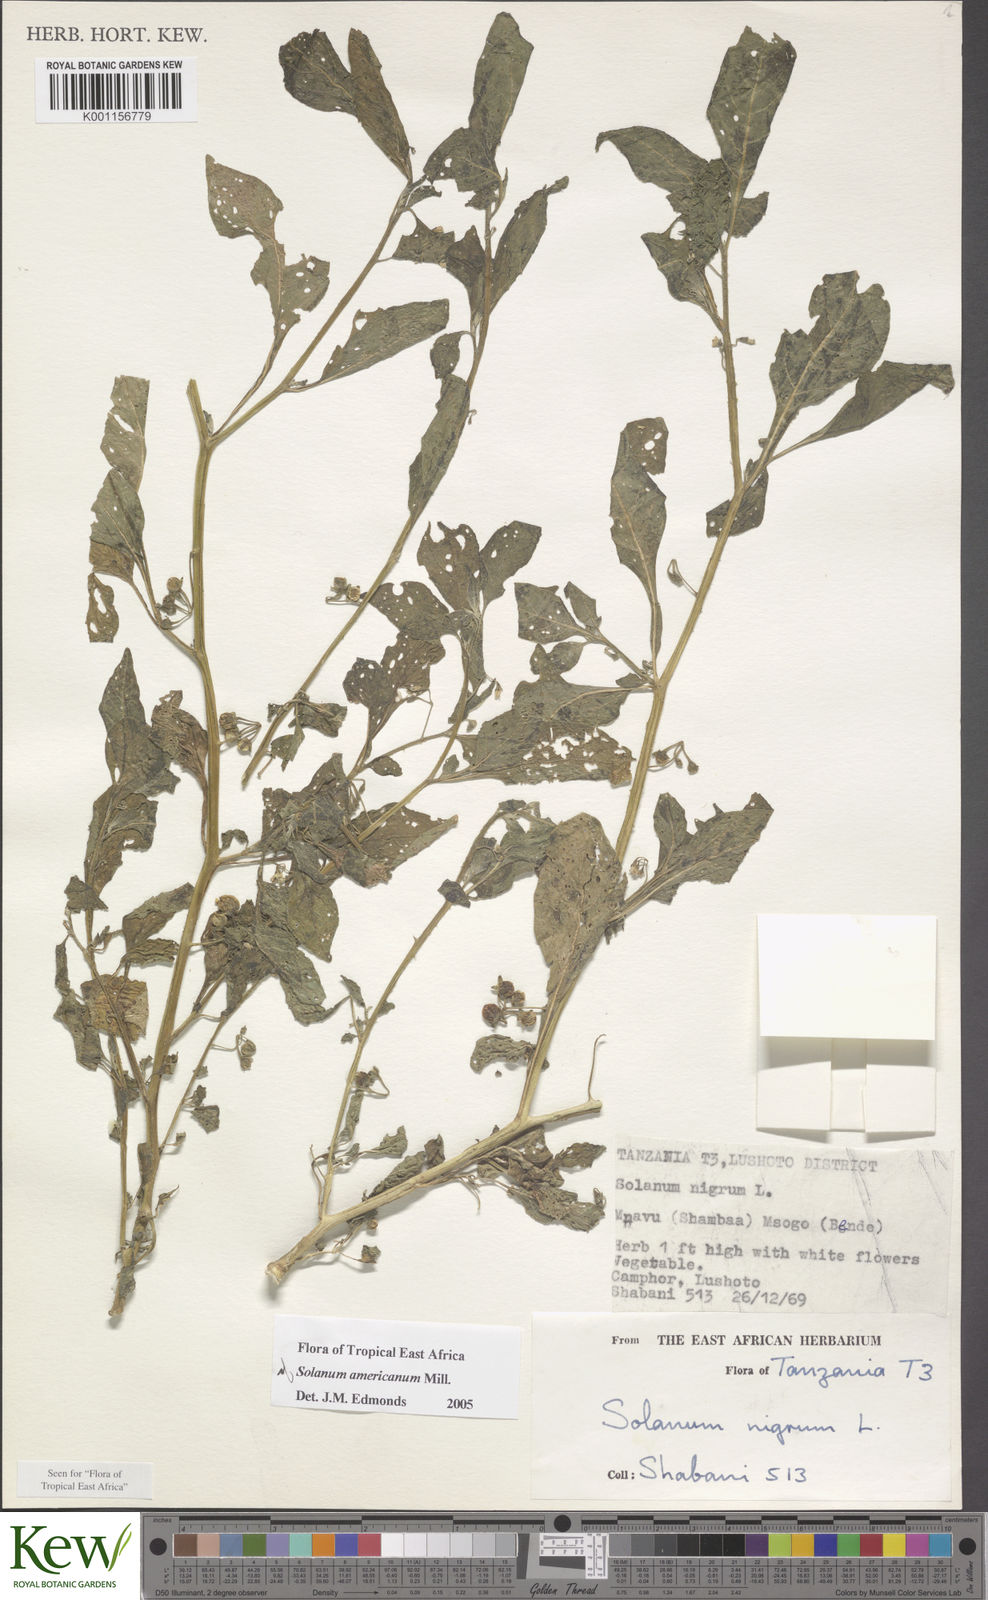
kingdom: Plantae
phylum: Tracheophyta
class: Magnoliopsida
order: Solanales
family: Solanaceae
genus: Solanum
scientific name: Solanum americanum
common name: American black nightshade
